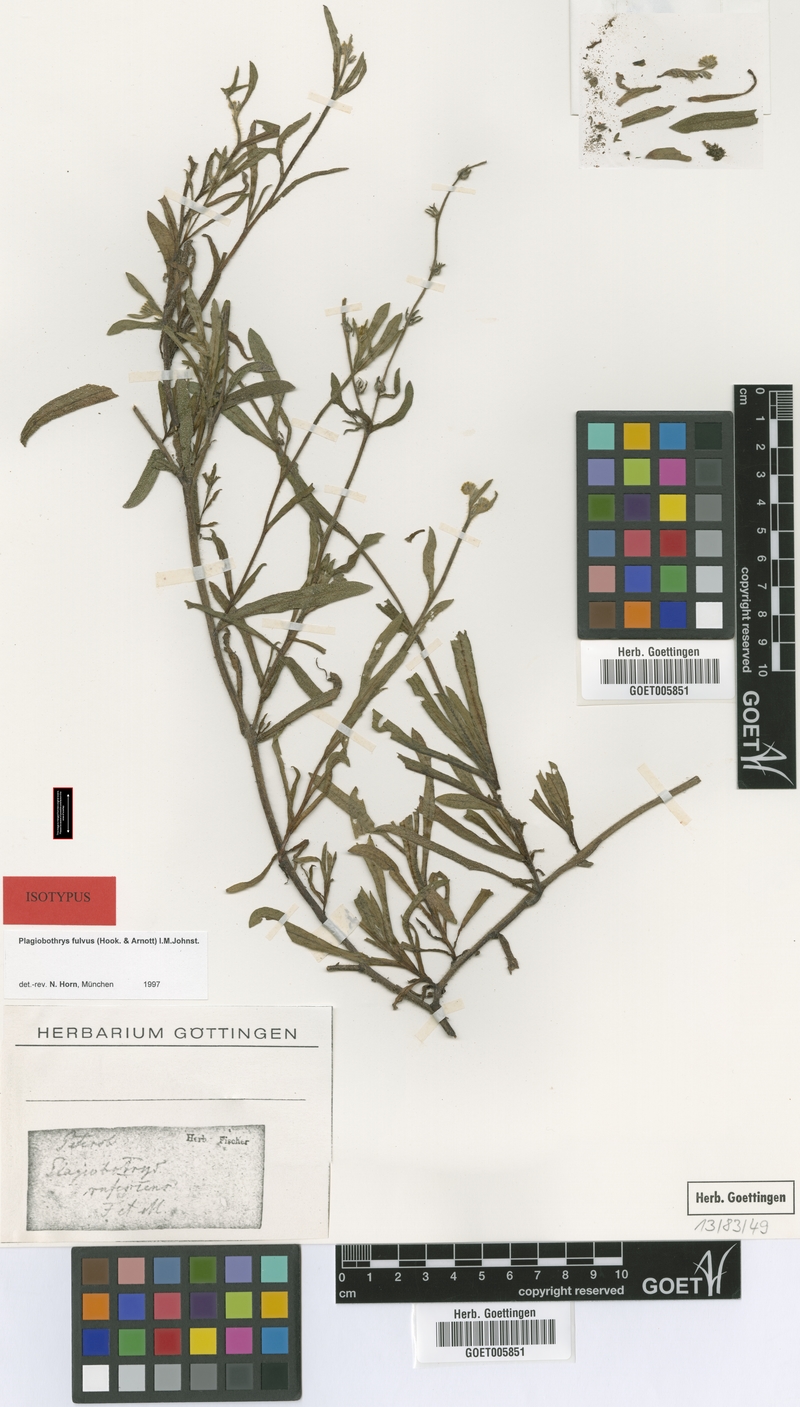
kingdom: Plantae
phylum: Tracheophyta
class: Magnoliopsida
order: Boraginales
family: Boraginaceae
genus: Plagiobothrys
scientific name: Plagiobothrys fulvus
